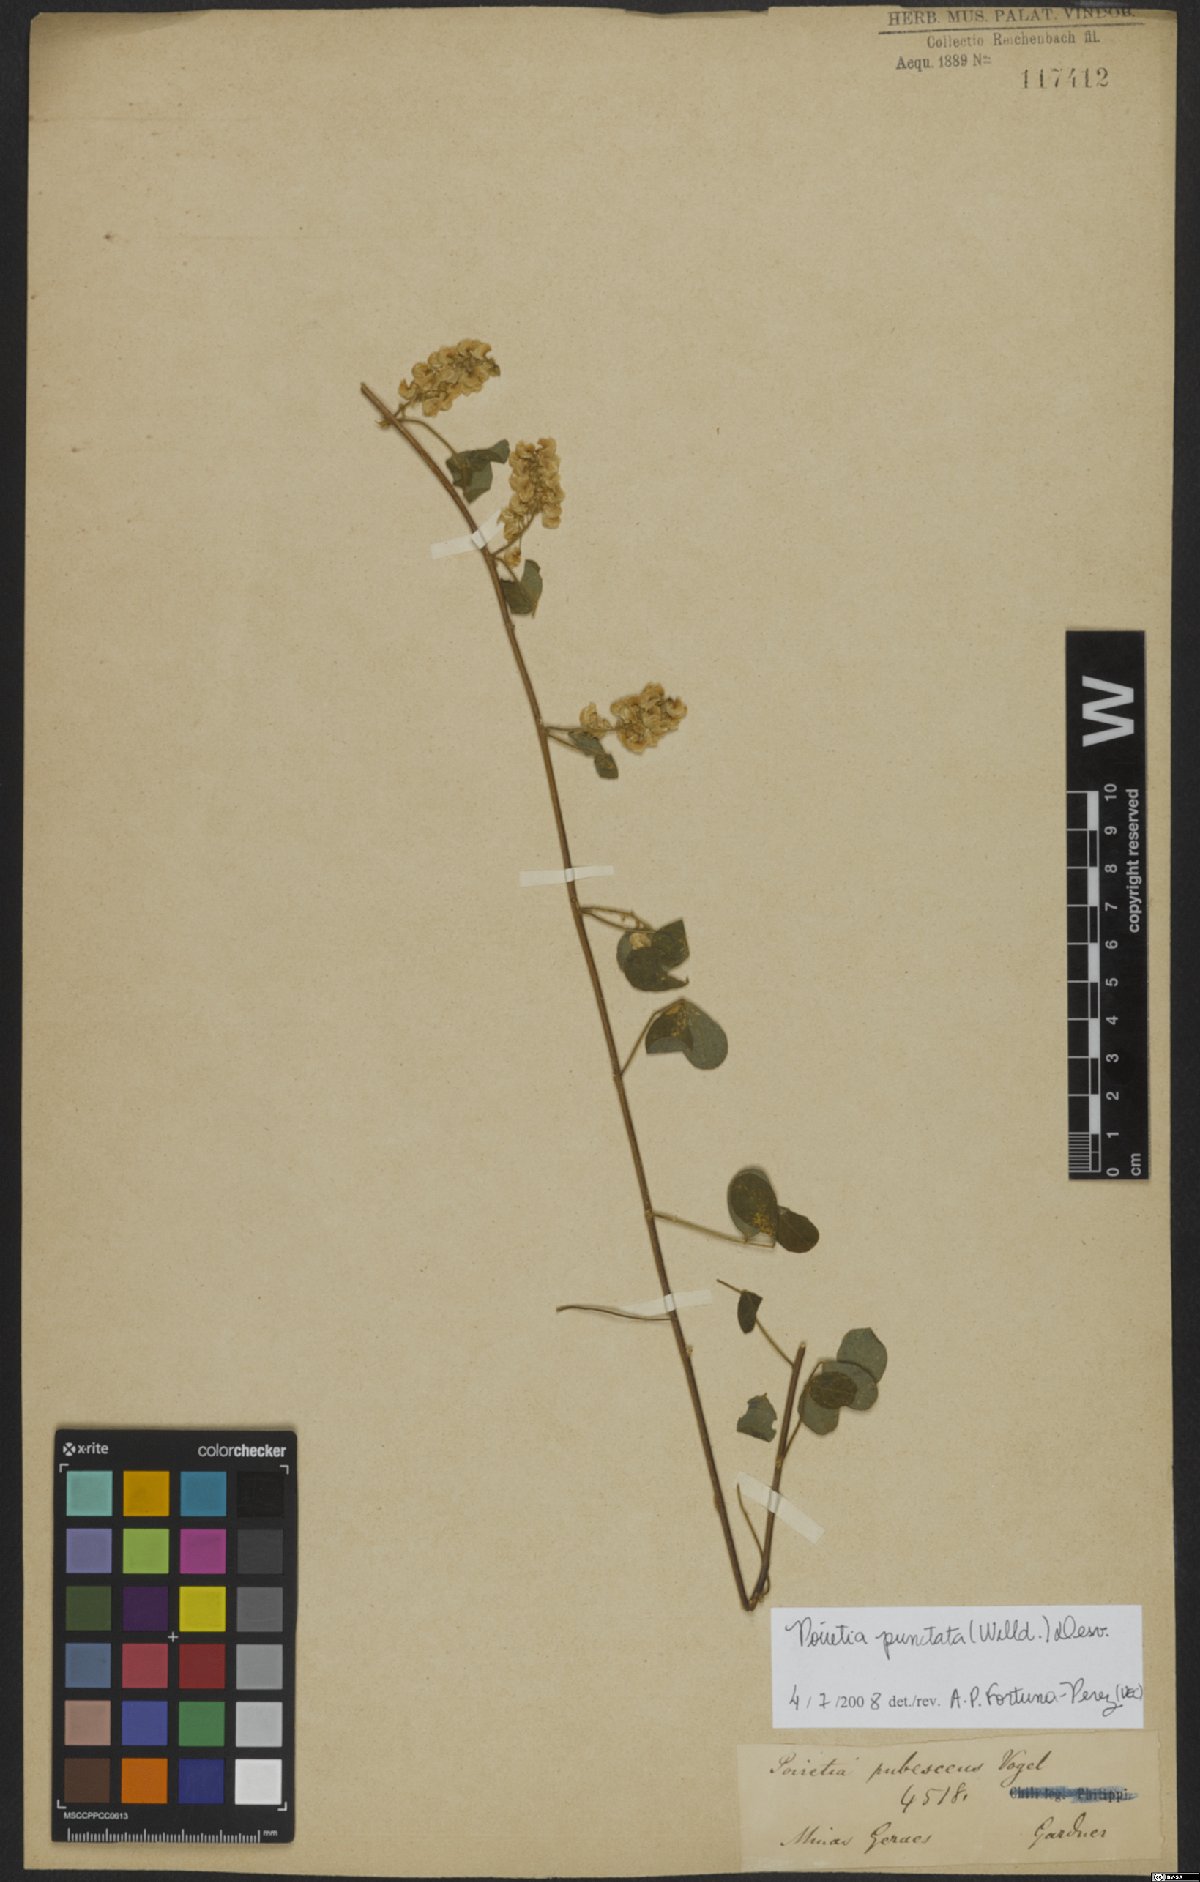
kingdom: Plantae
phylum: Tracheophyta
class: Magnoliopsida
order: Fabales
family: Fabaceae
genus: Poiretia
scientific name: Poiretia punctata
